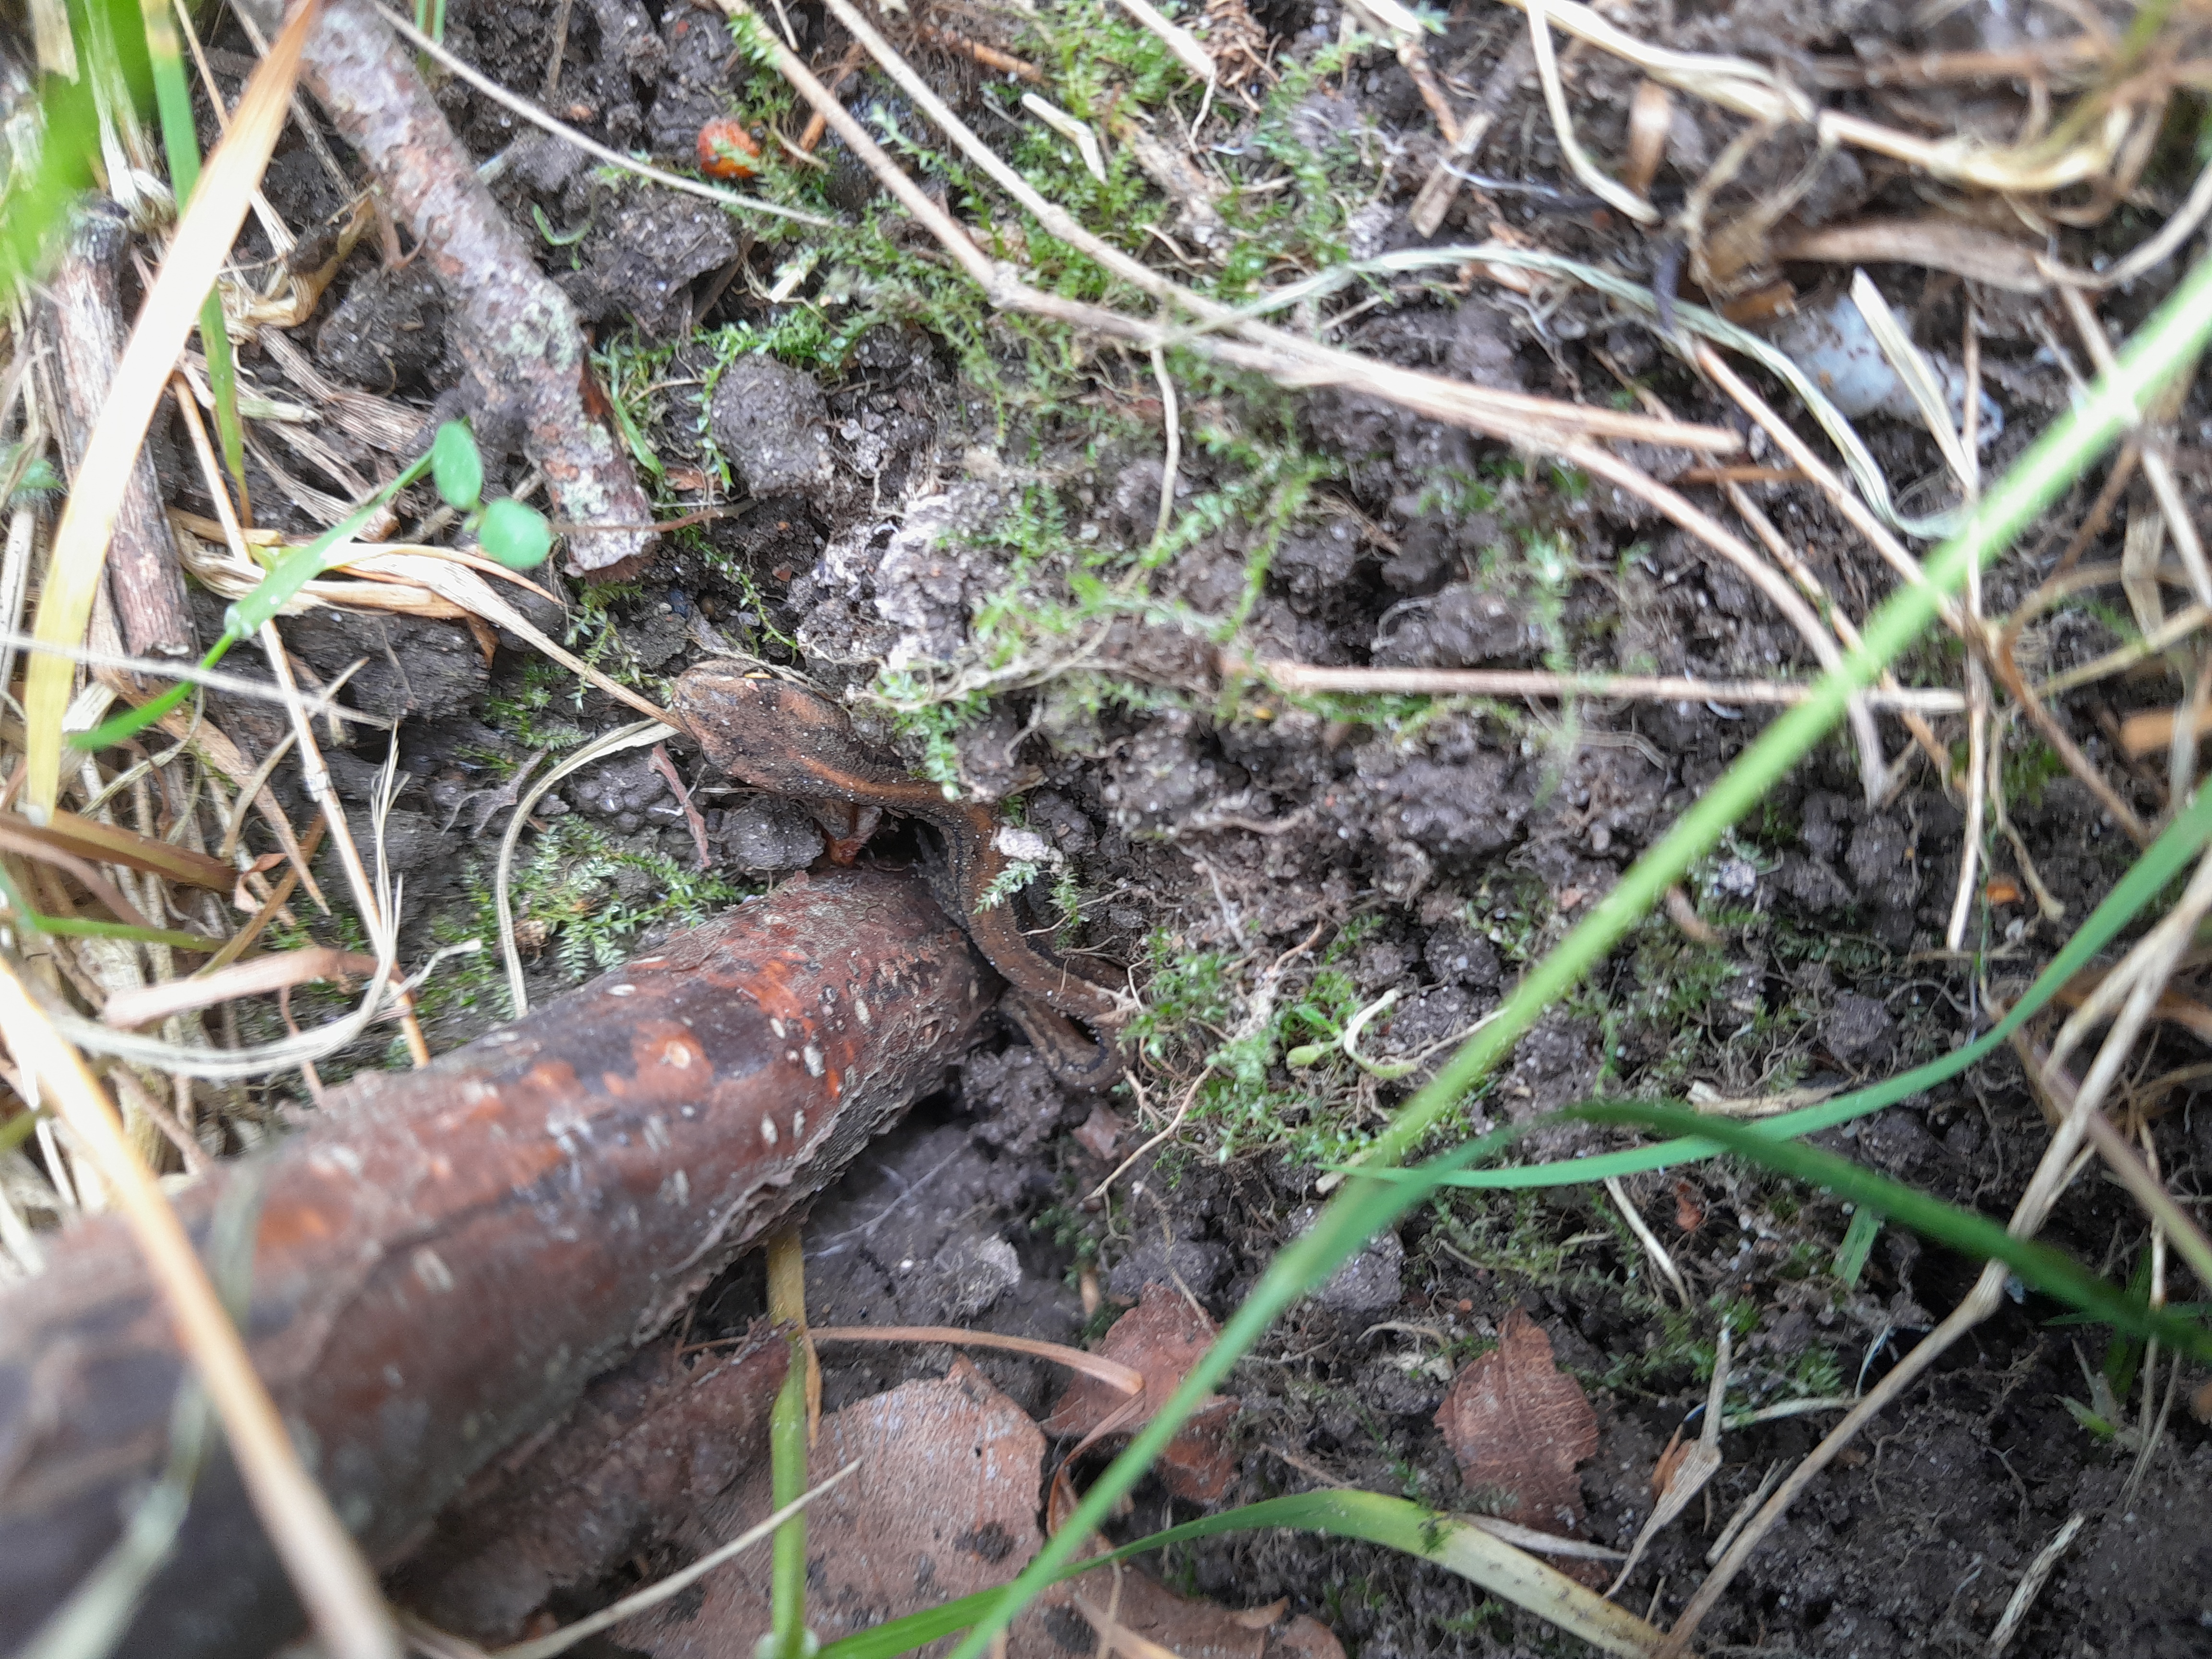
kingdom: Animalia
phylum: Chordata
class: Amphibia
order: Caudata
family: Salamandridae
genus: Lissotriton
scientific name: Lissotriton vulgaris
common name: Lille vandsalamander
